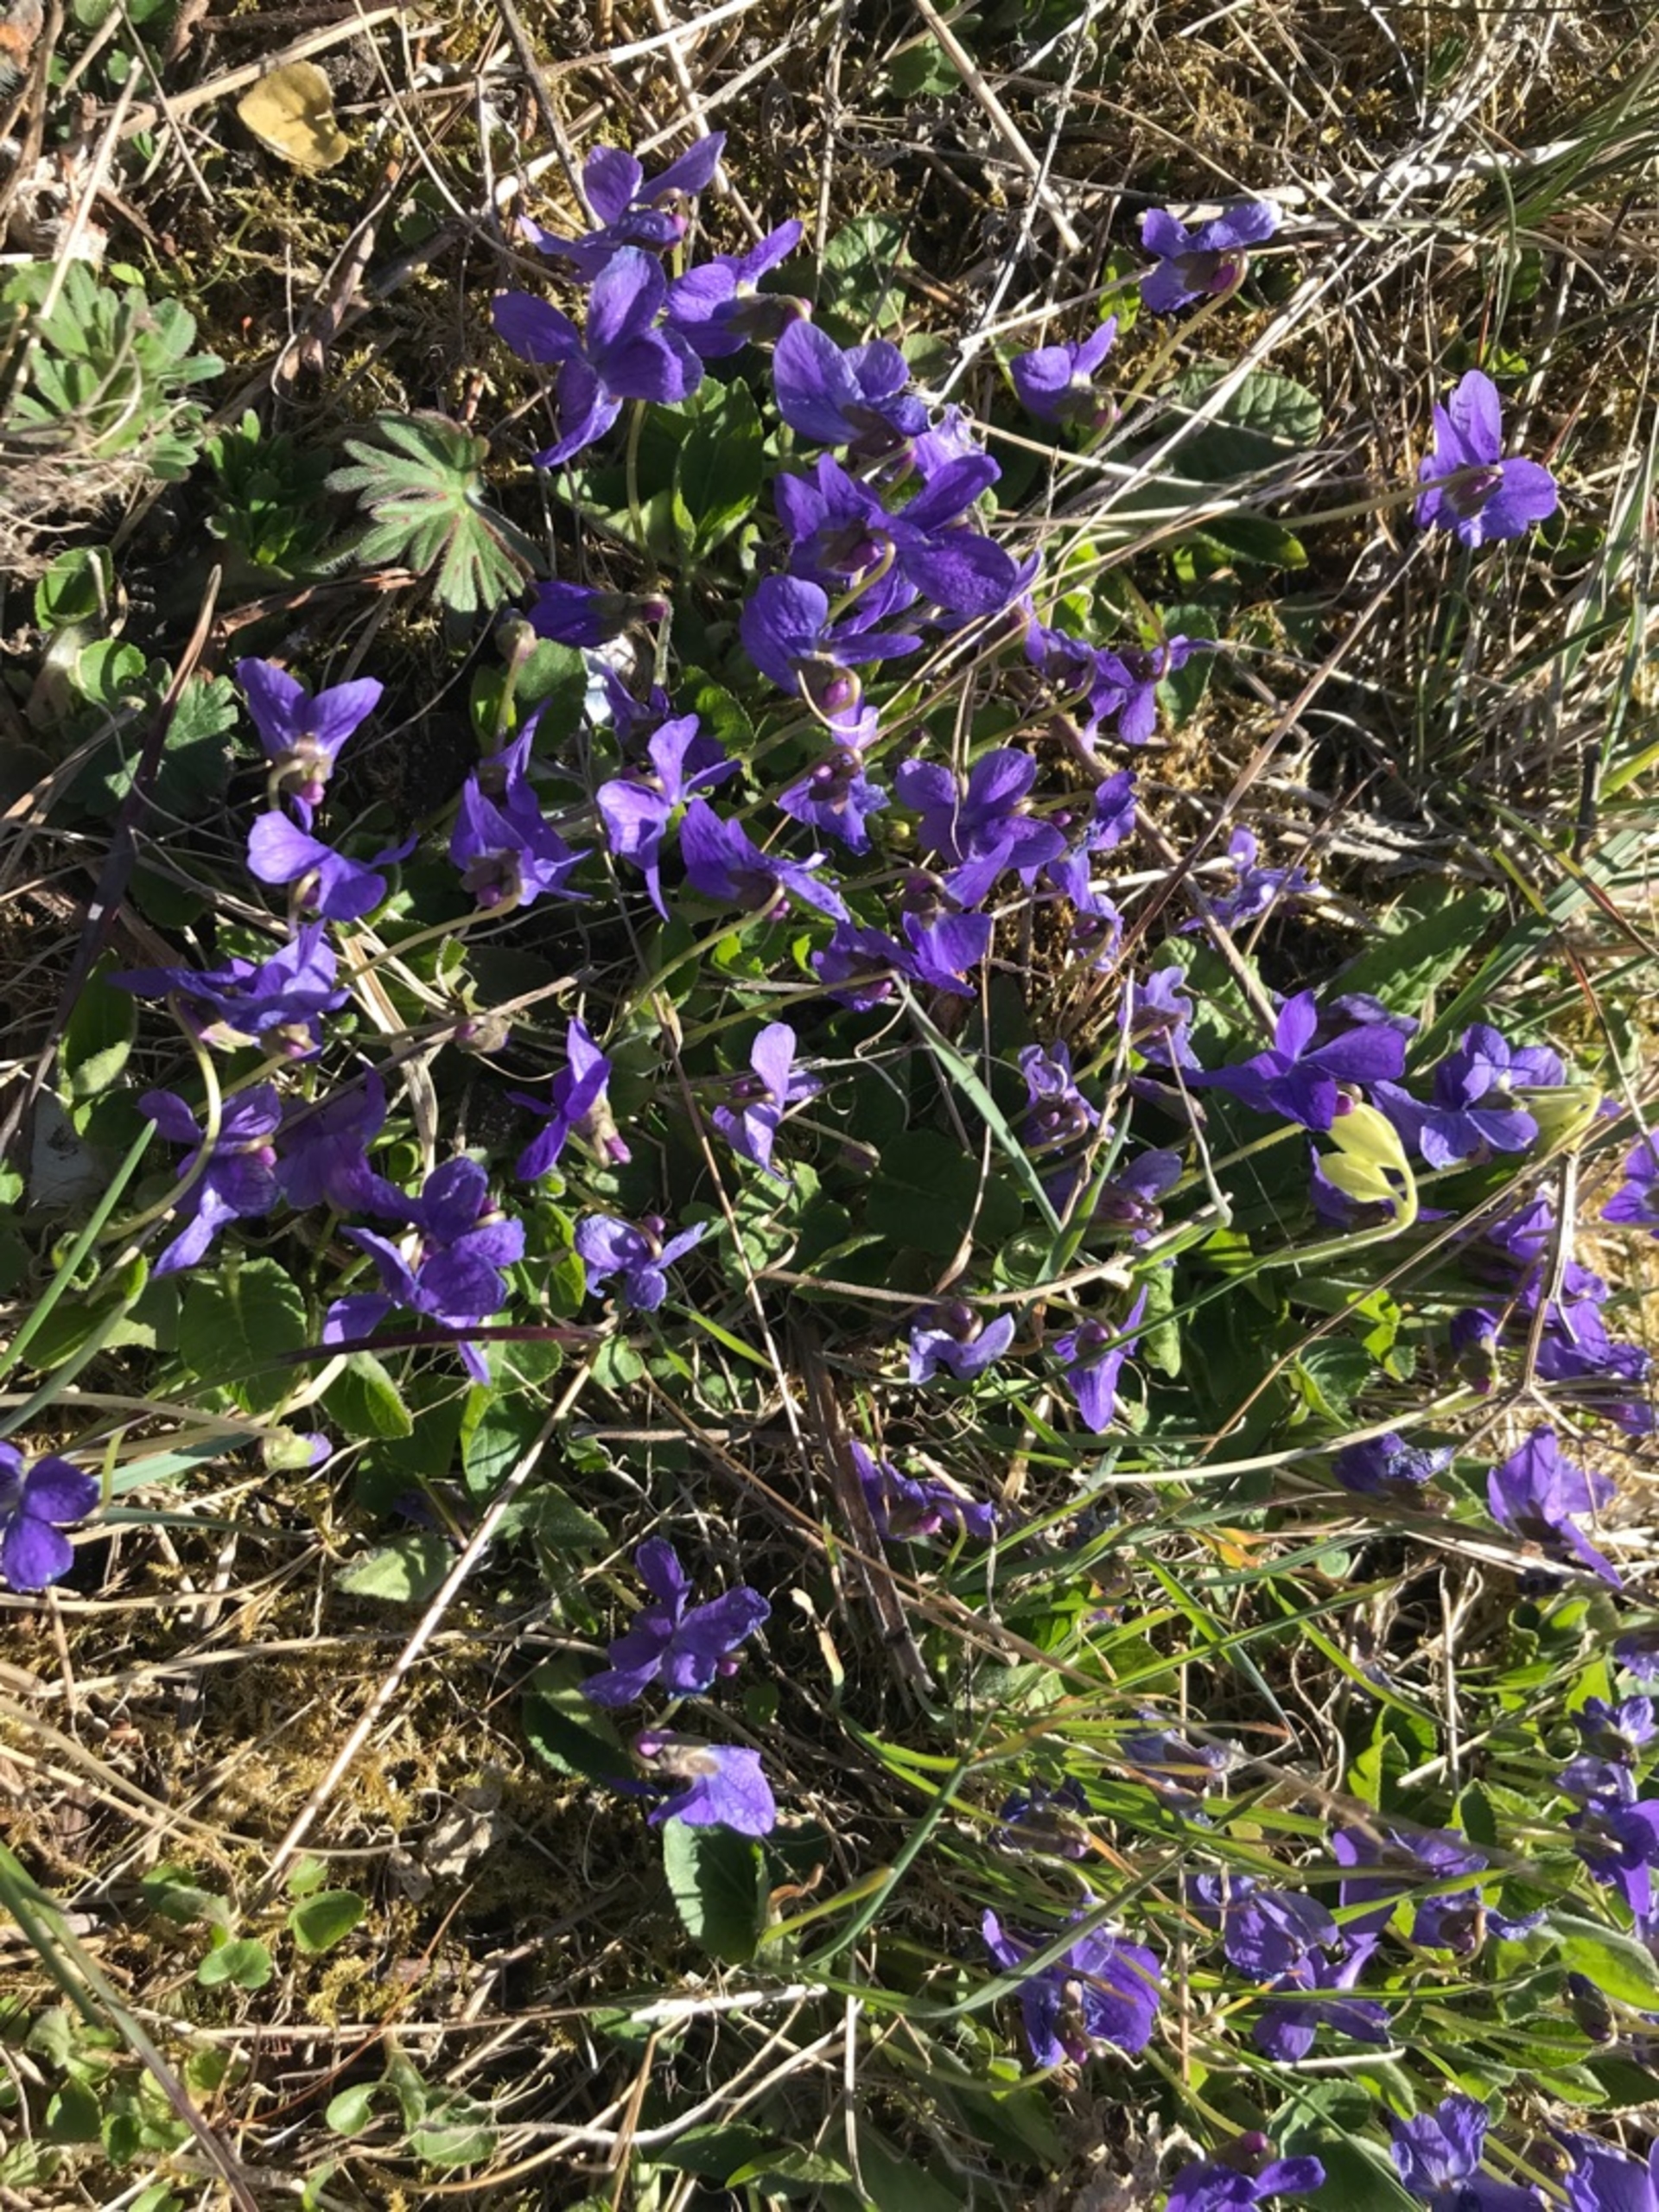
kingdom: Plantae
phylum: Tracheophyta
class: Magnoliopsida
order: Malpighiales
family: Violaceae
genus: Viola
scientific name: Viola hirta
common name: Håret viol
